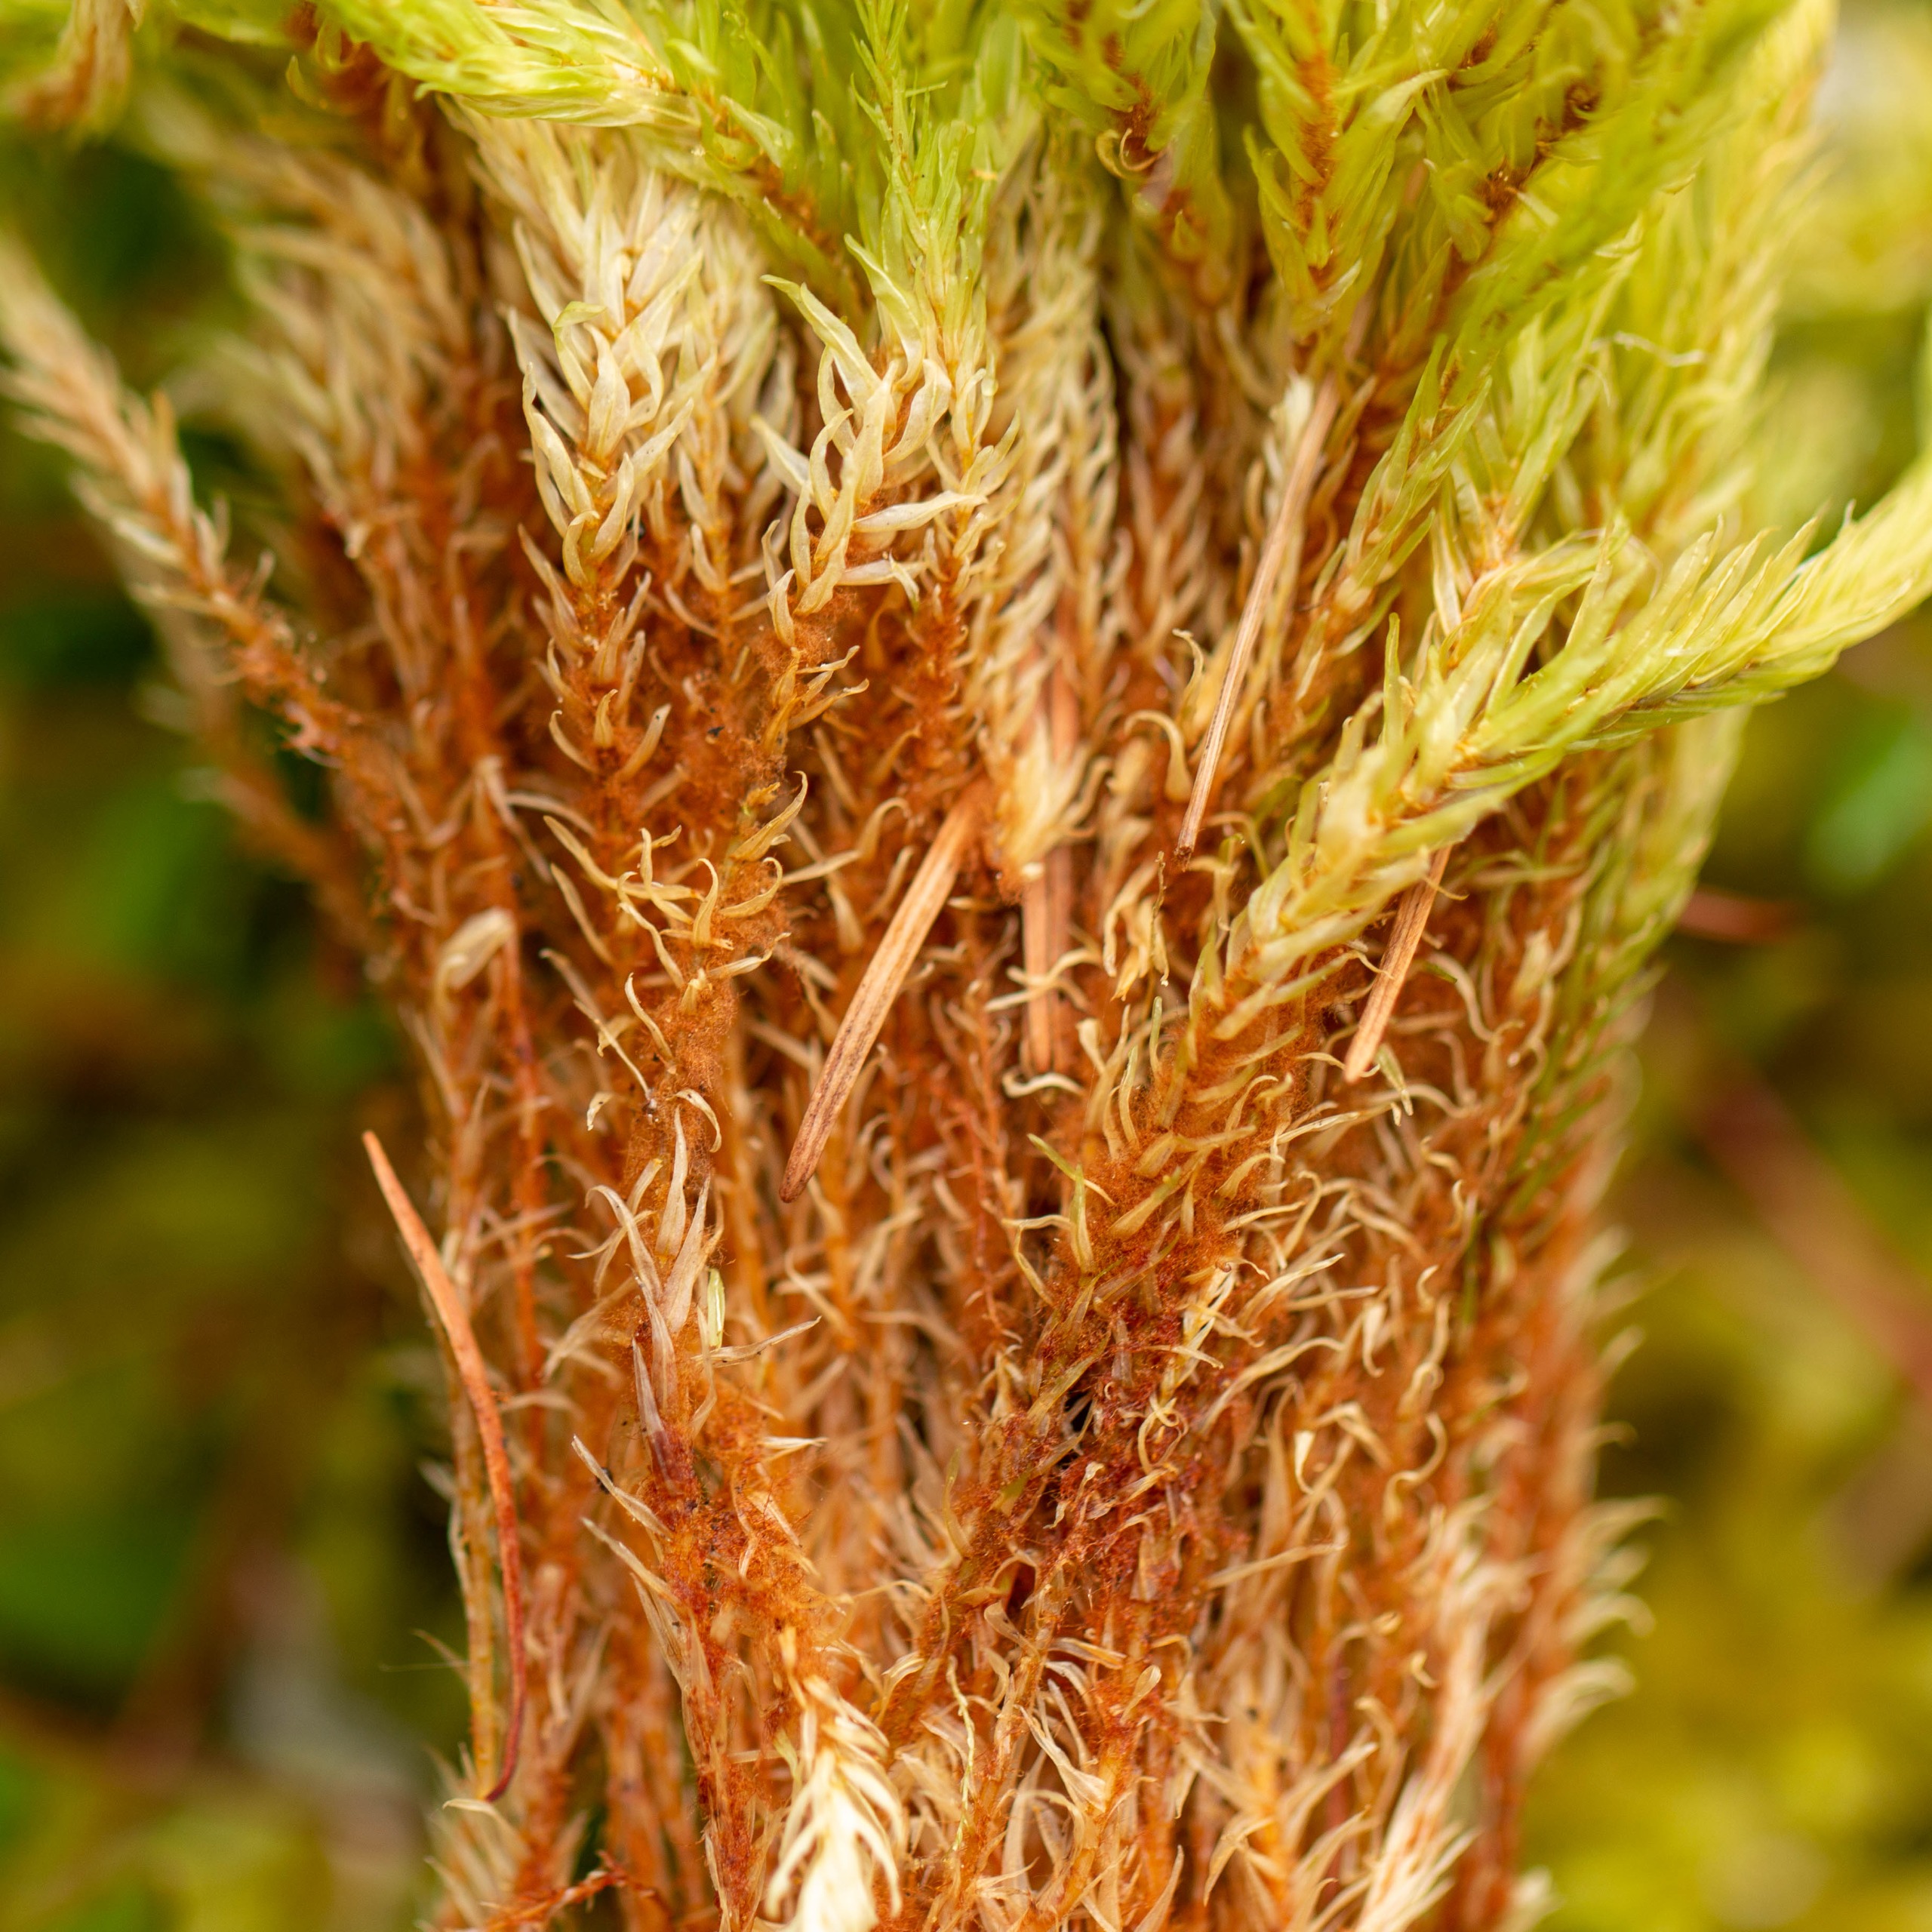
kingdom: Plantae
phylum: Bryophyta
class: Bryopsida
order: Aulacomniales
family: Aulacomniaceae
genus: Aulacomnium
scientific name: Aulacomnium palustre
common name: Almindelig filtmos
